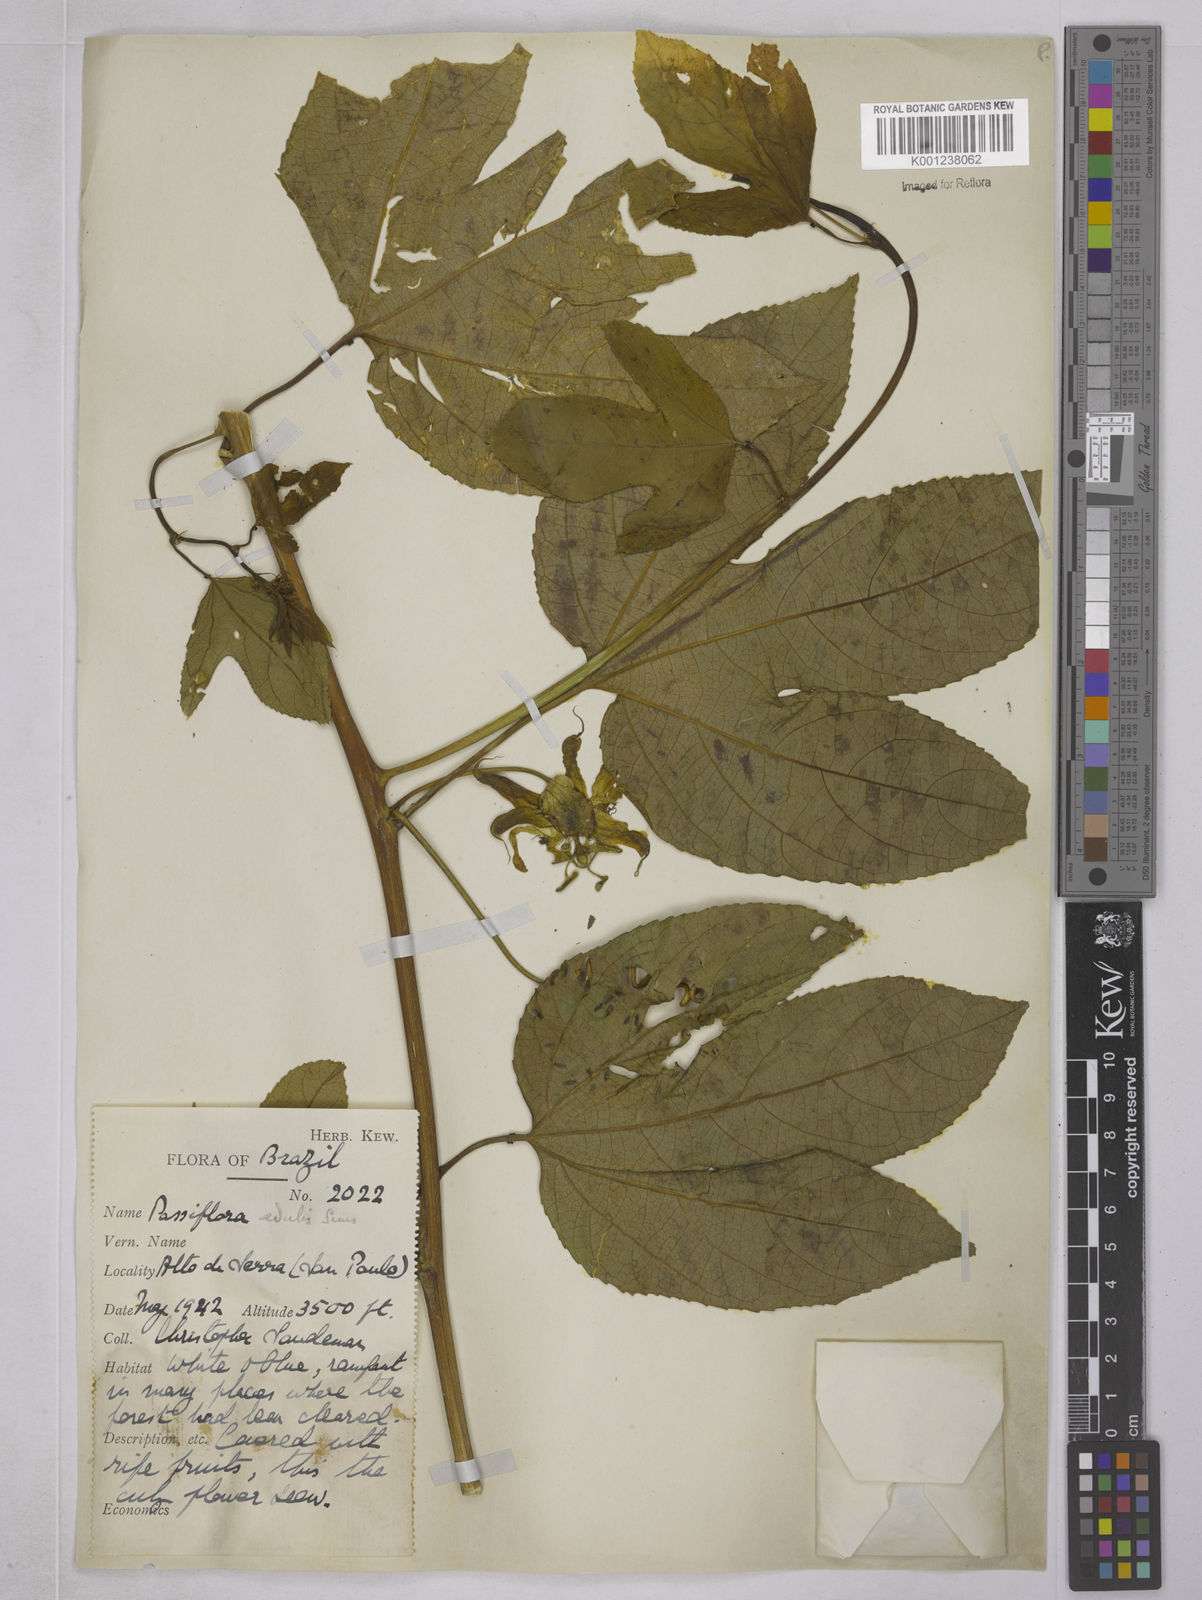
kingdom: Plantae
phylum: Tracheophyta
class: Magnoliopsida
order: Malpighiales
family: Passifloraceae
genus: Passiflora
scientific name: Passiflora edulis
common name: Purple granadilla
